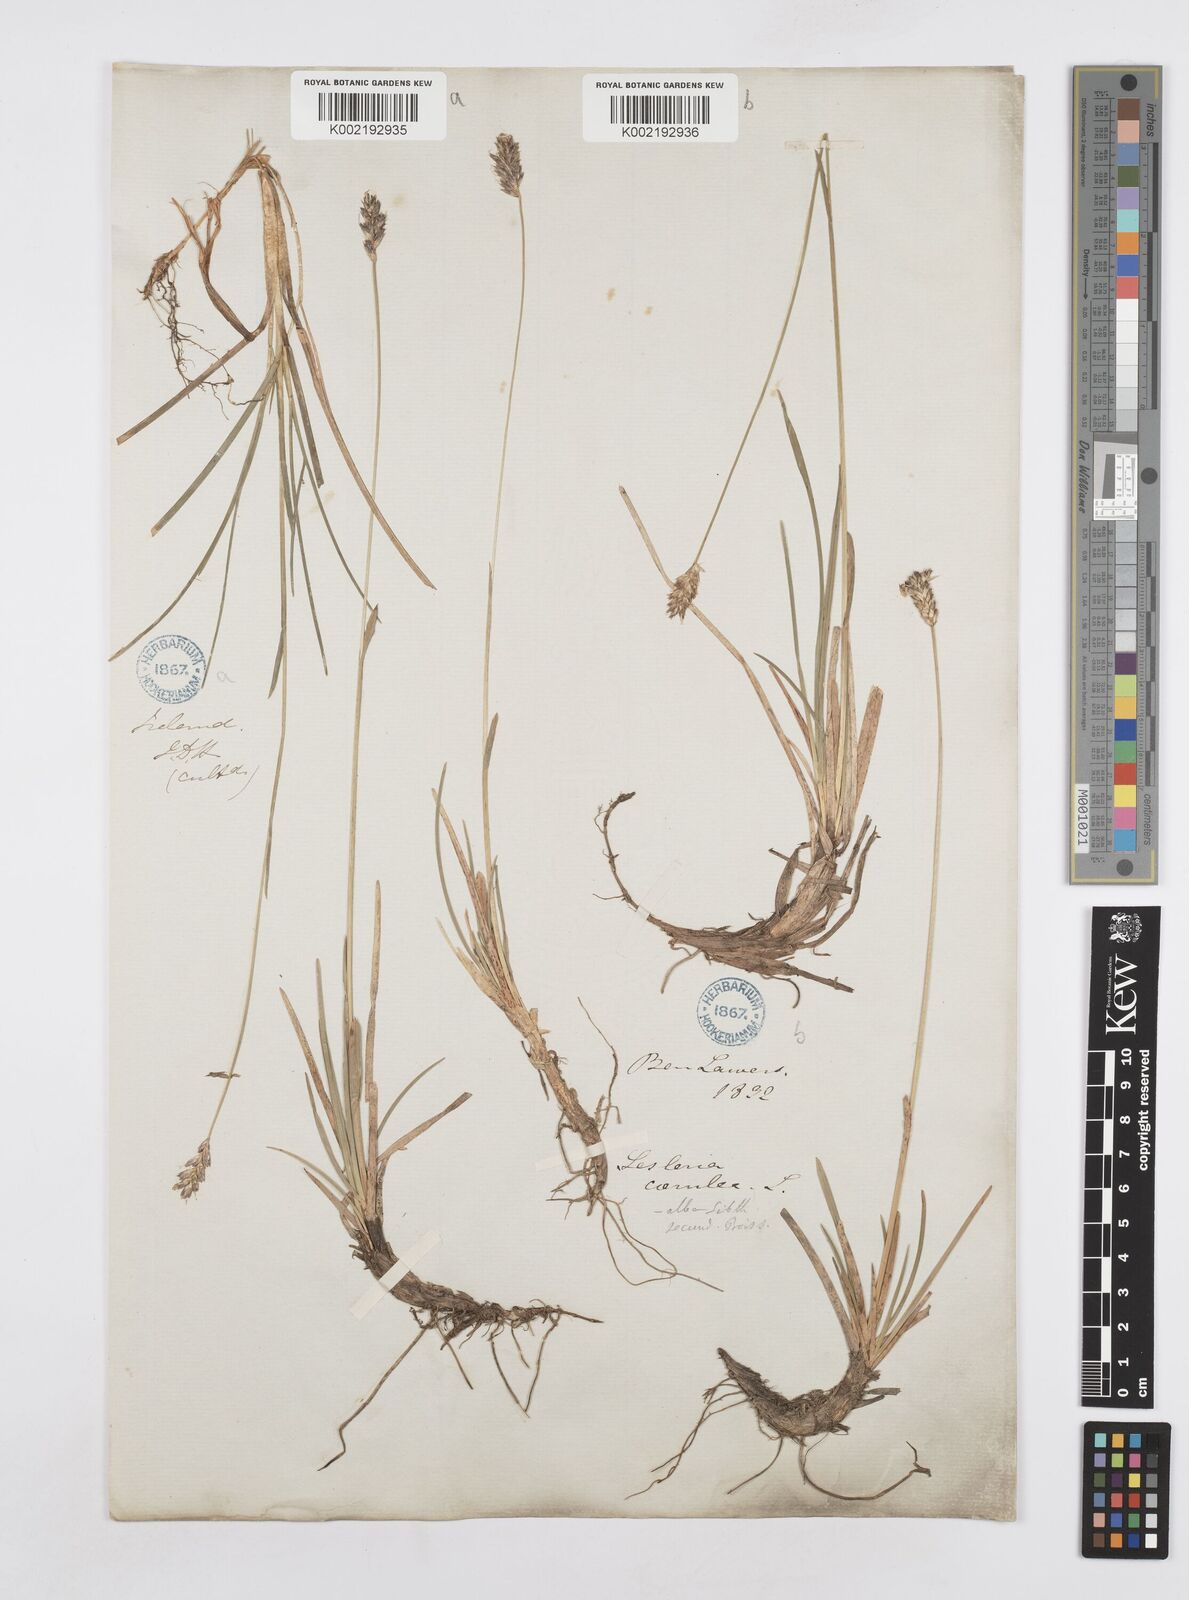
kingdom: Plantae
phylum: Tracheophyta
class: Liliopsida
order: Poales
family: Poaceae
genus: Sesleria
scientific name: Sesleria caerulea
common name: Blue moor-grass
